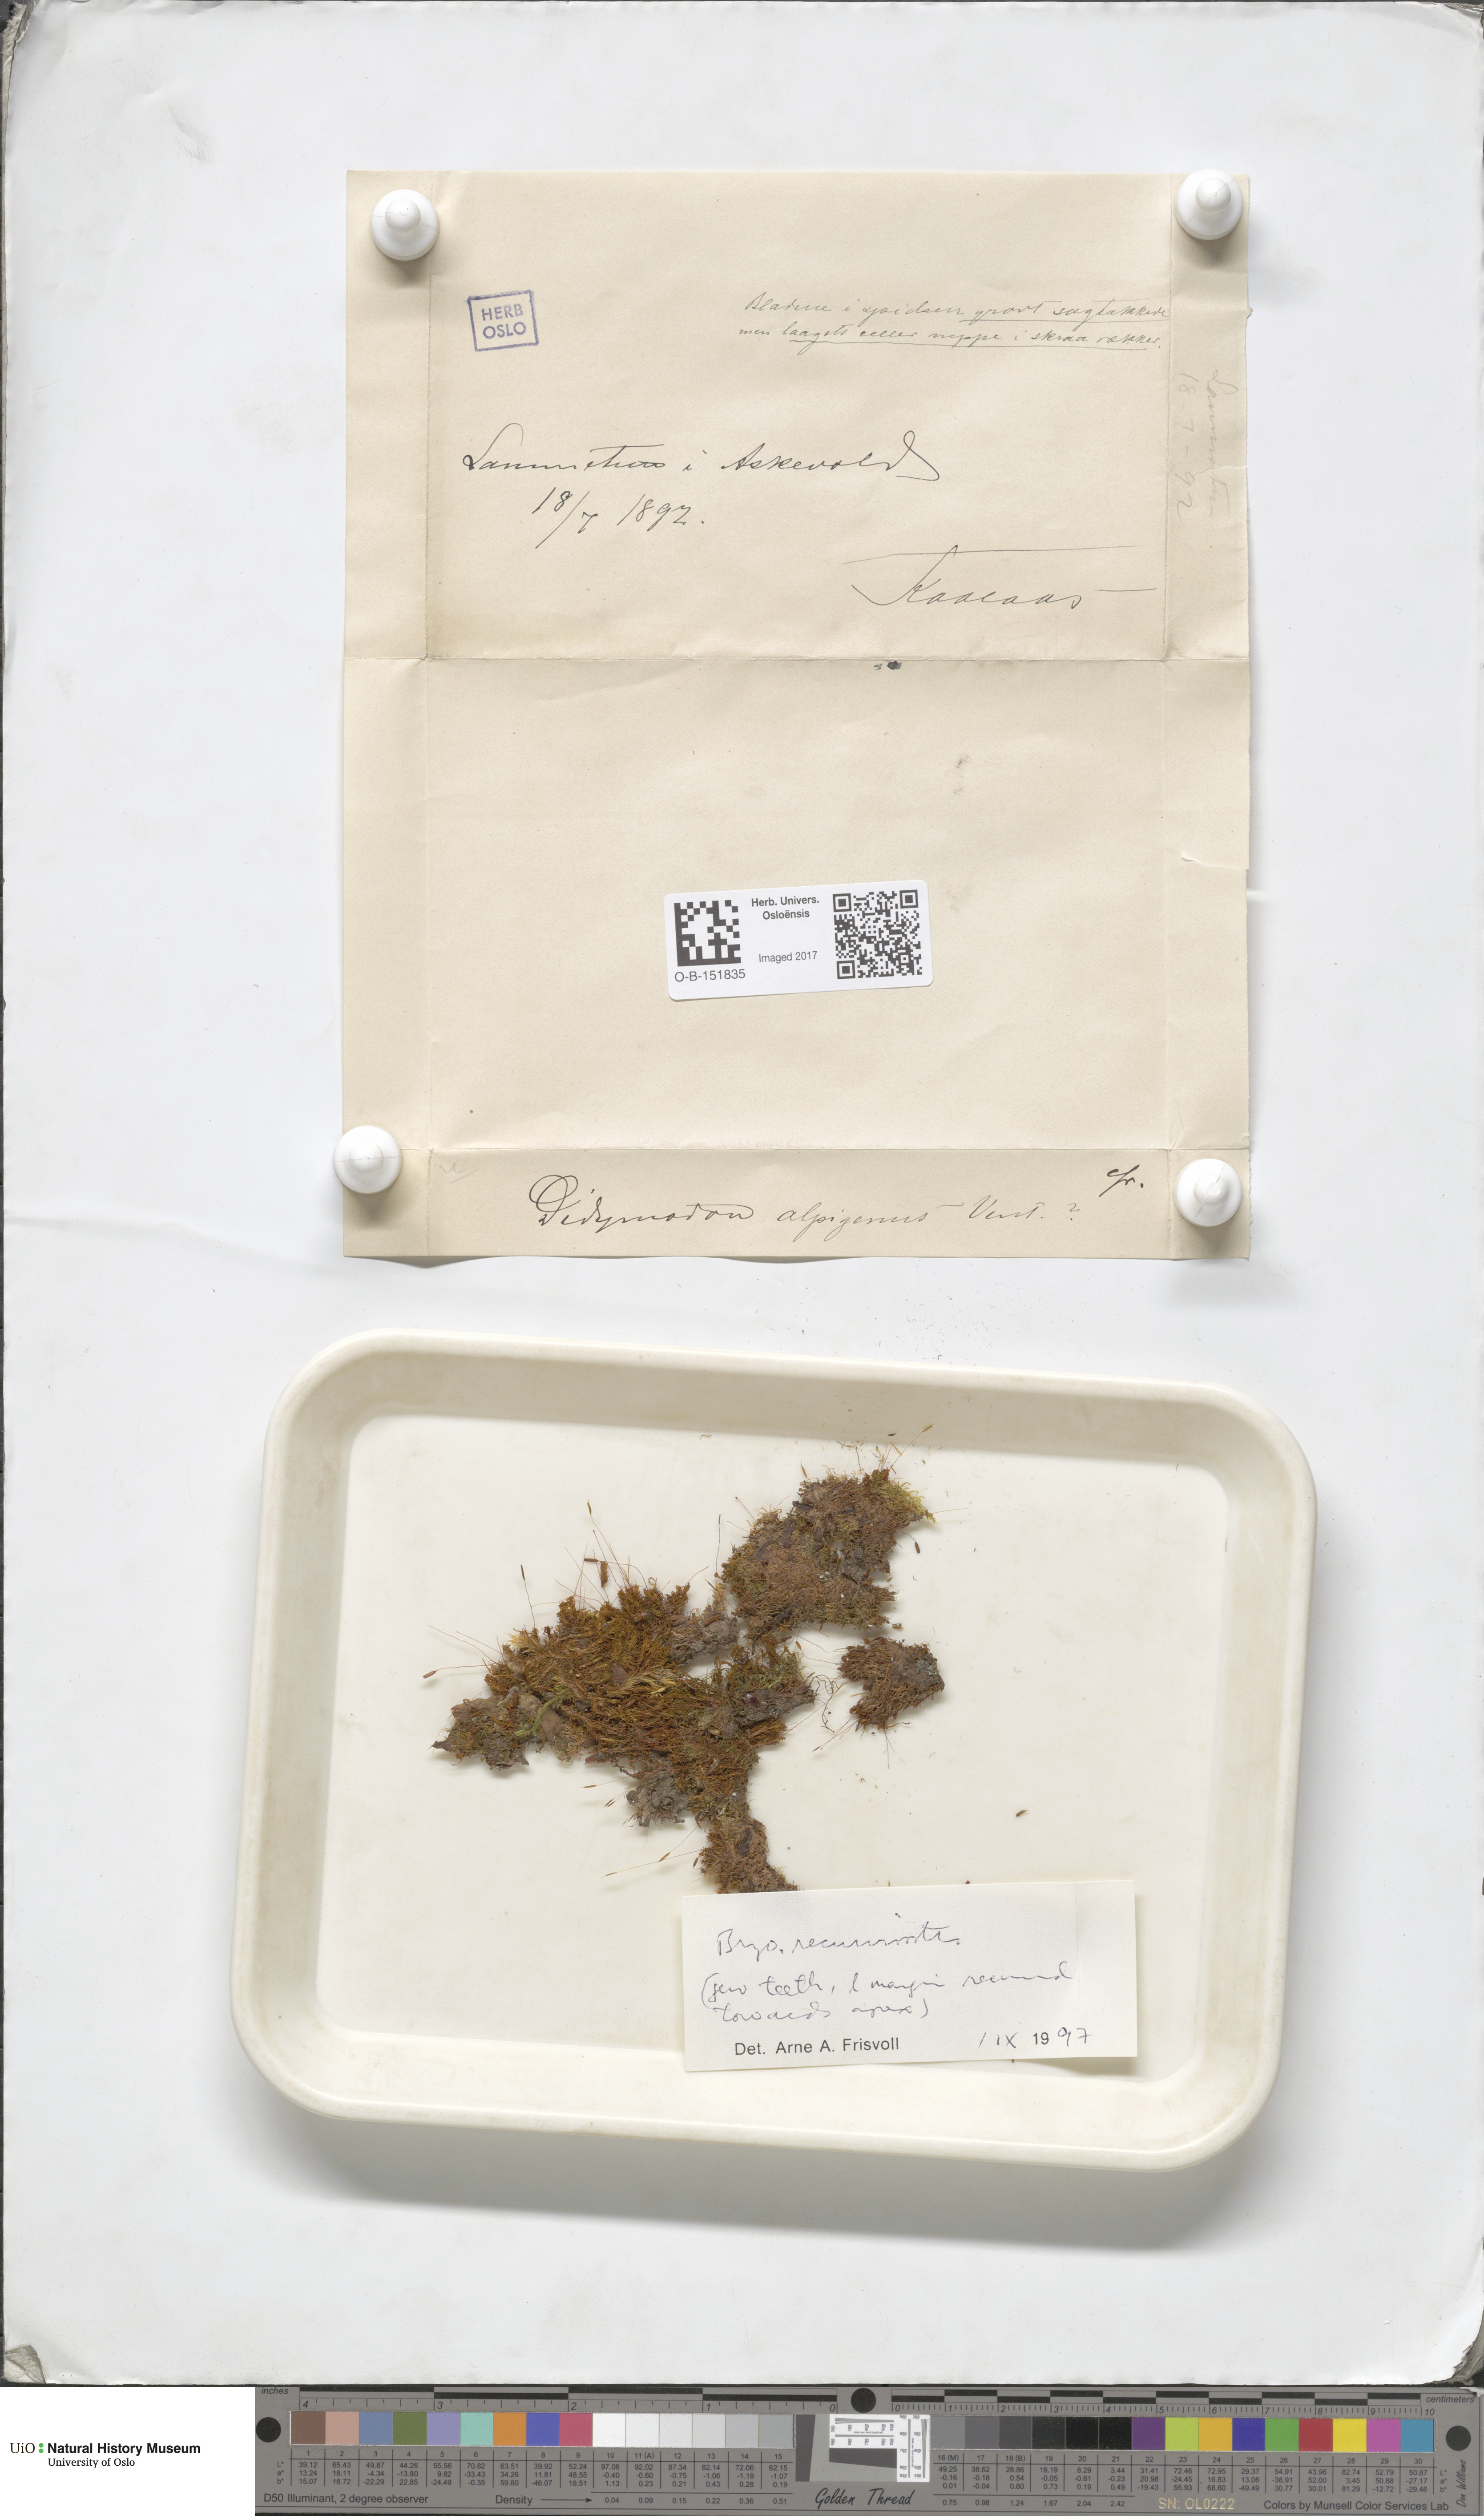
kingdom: Plantae
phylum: Bryophyta
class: Bryopsida
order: Pottiales
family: Pottiaceae
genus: Bryoerythrophyllum
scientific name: Bryoerythrophyllum recurvirostrum
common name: Red beard moss
